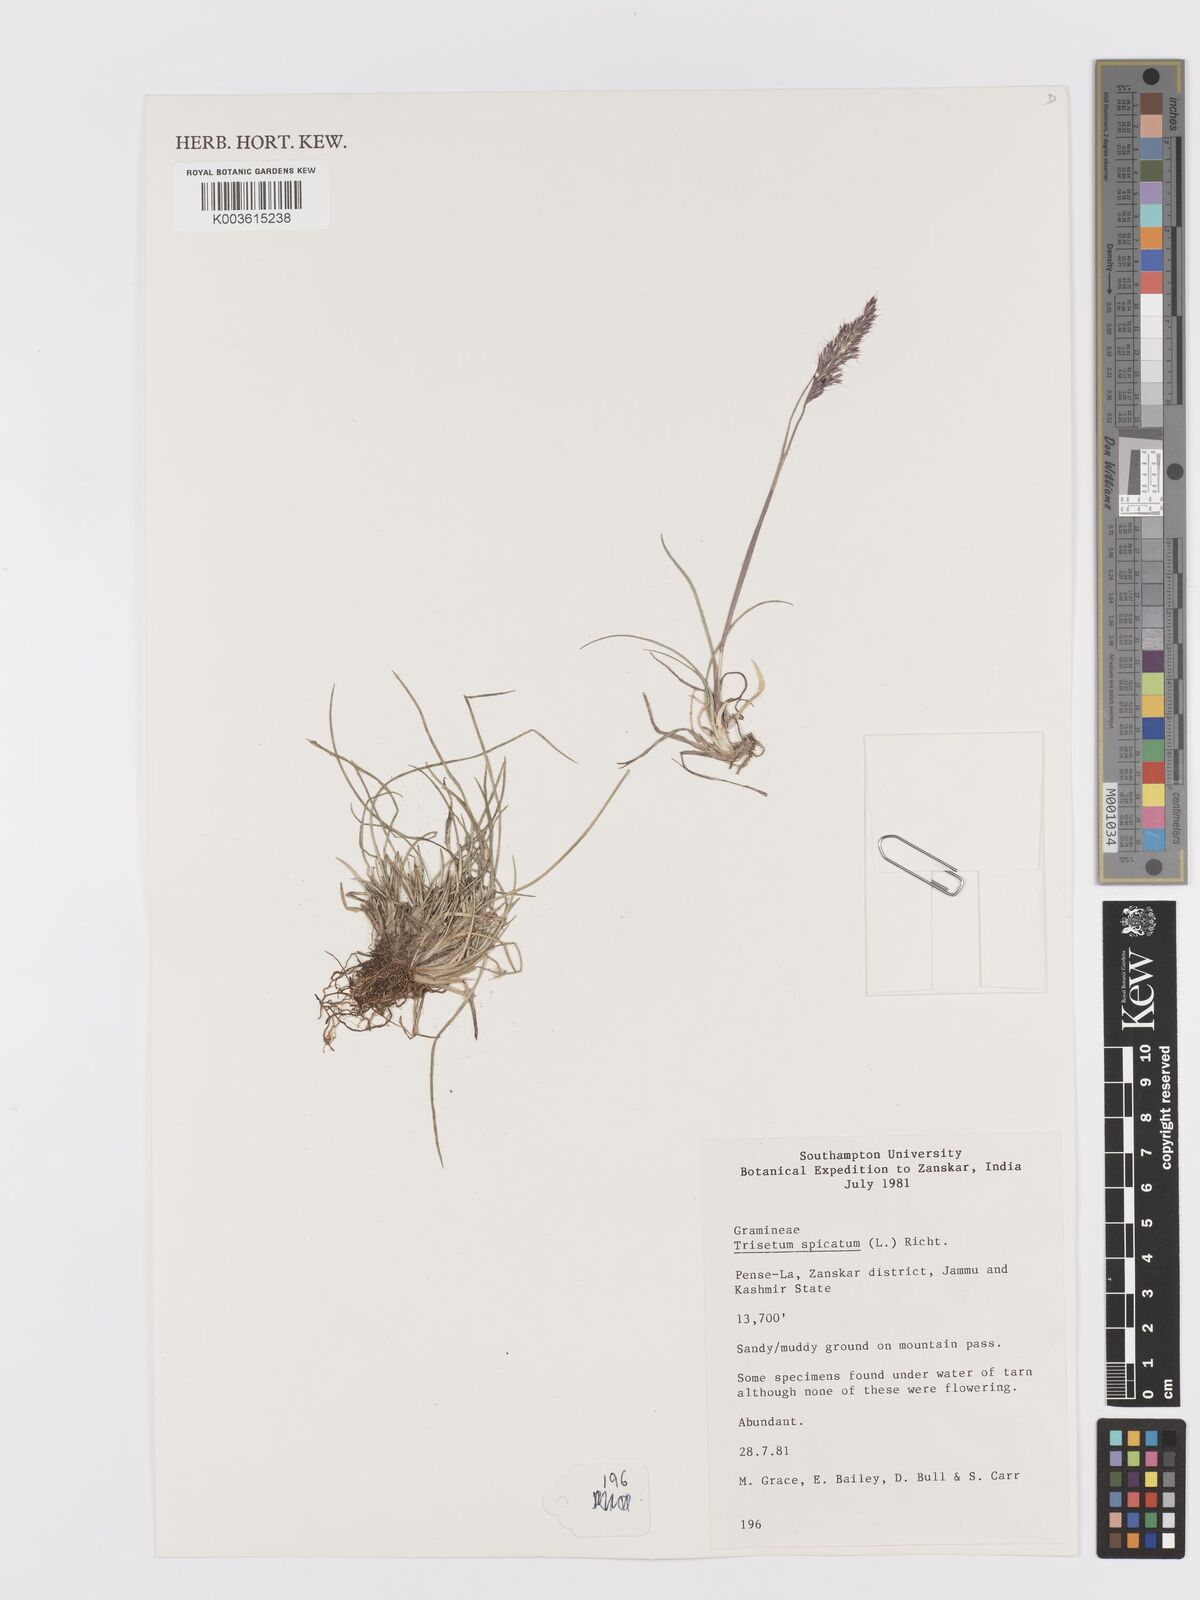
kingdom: Plantae
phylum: Tracheophyta
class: Liliopsida
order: Poales
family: Poaceae
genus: Koeleria
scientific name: Koeleria spicata
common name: Mountain trisetum
